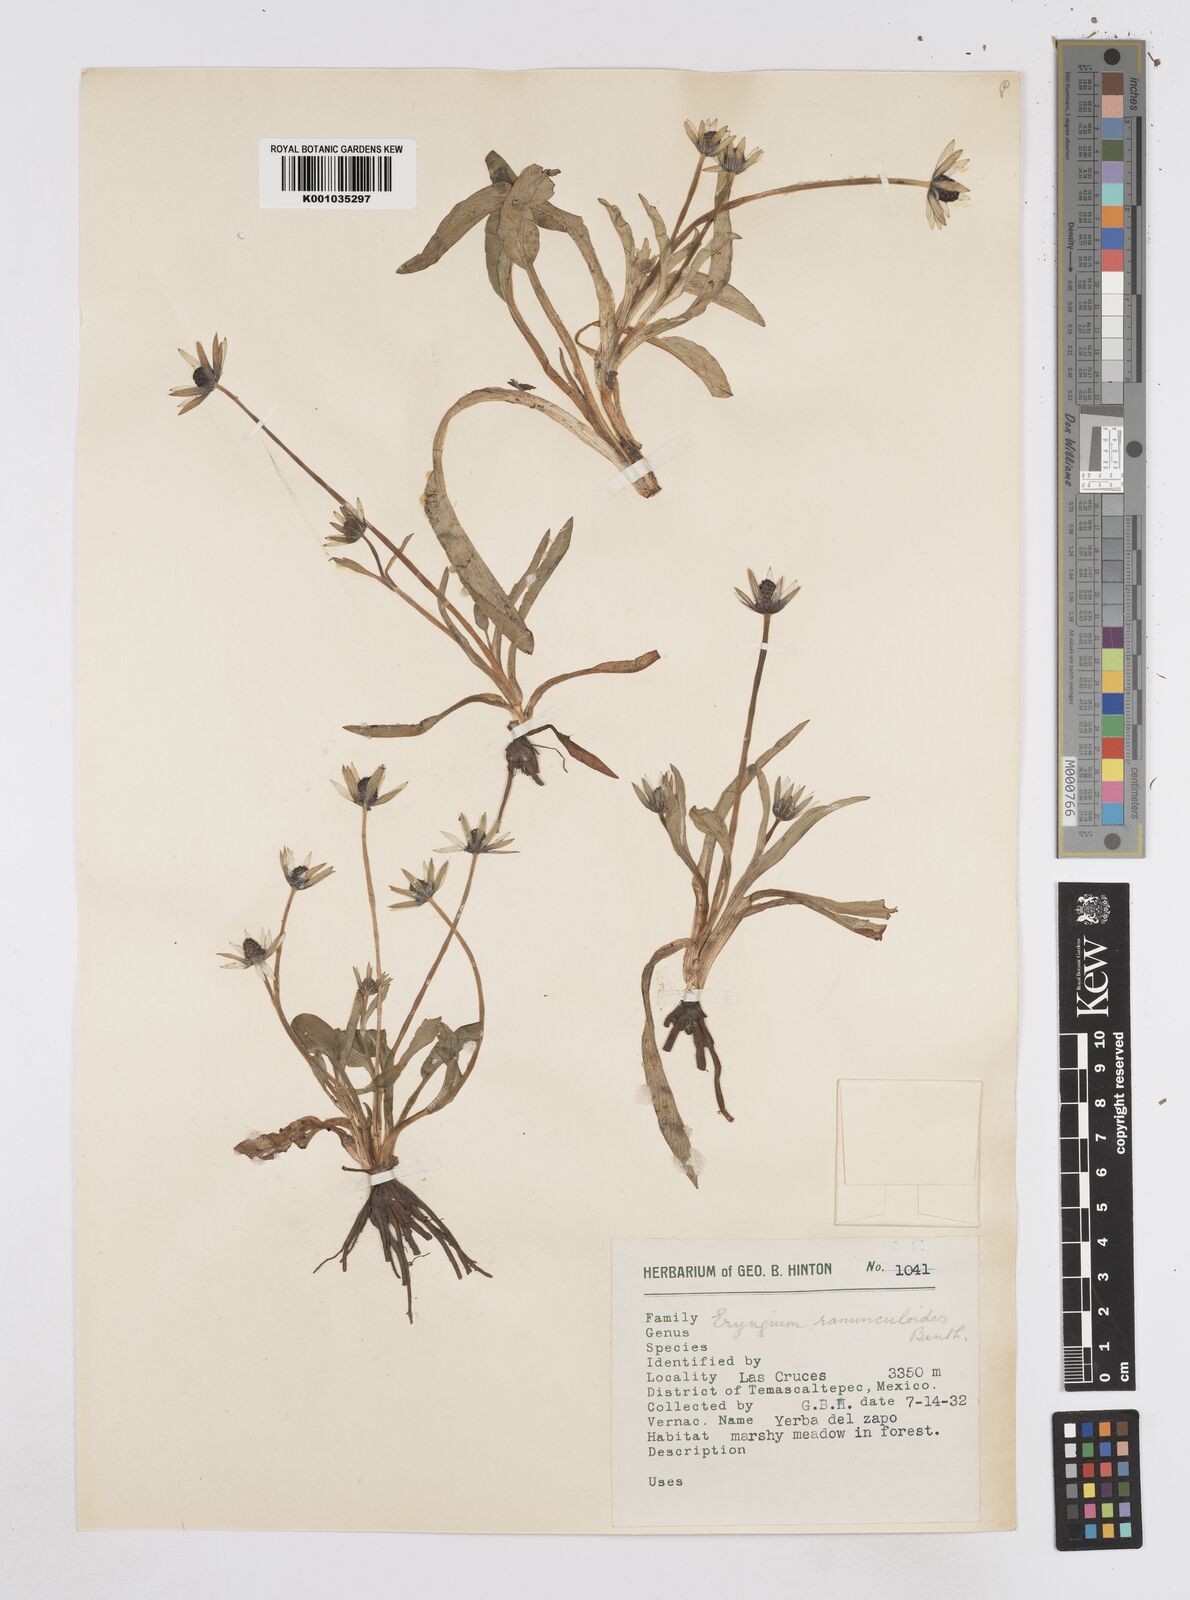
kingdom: Plantae
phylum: Tracheophyta
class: Magnoliopsida
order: Apiales
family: Apiaceae
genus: Eryngium
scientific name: Eryngium subacaule
